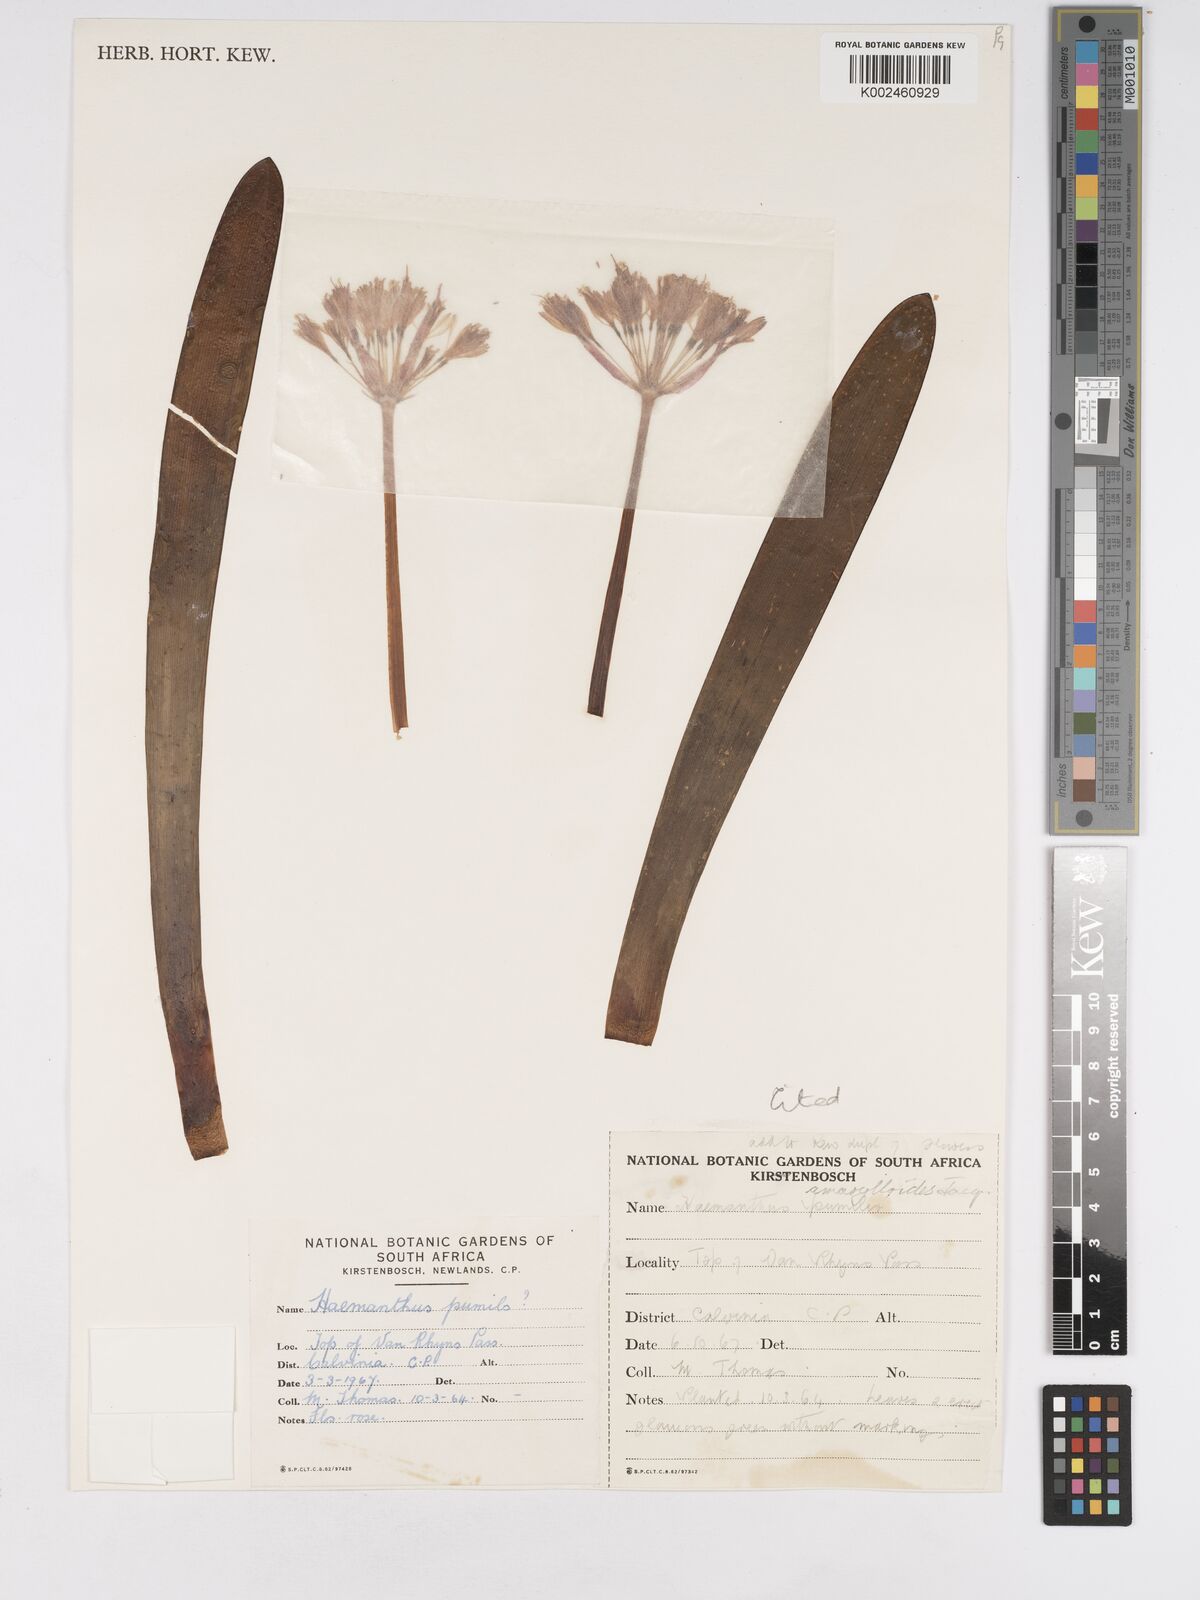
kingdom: Plantae
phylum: Tracheophyta
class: Liliopsida
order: Asparagales
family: Amaryllidaceae
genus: Haemanthus
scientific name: Haemanthus amarylloides
